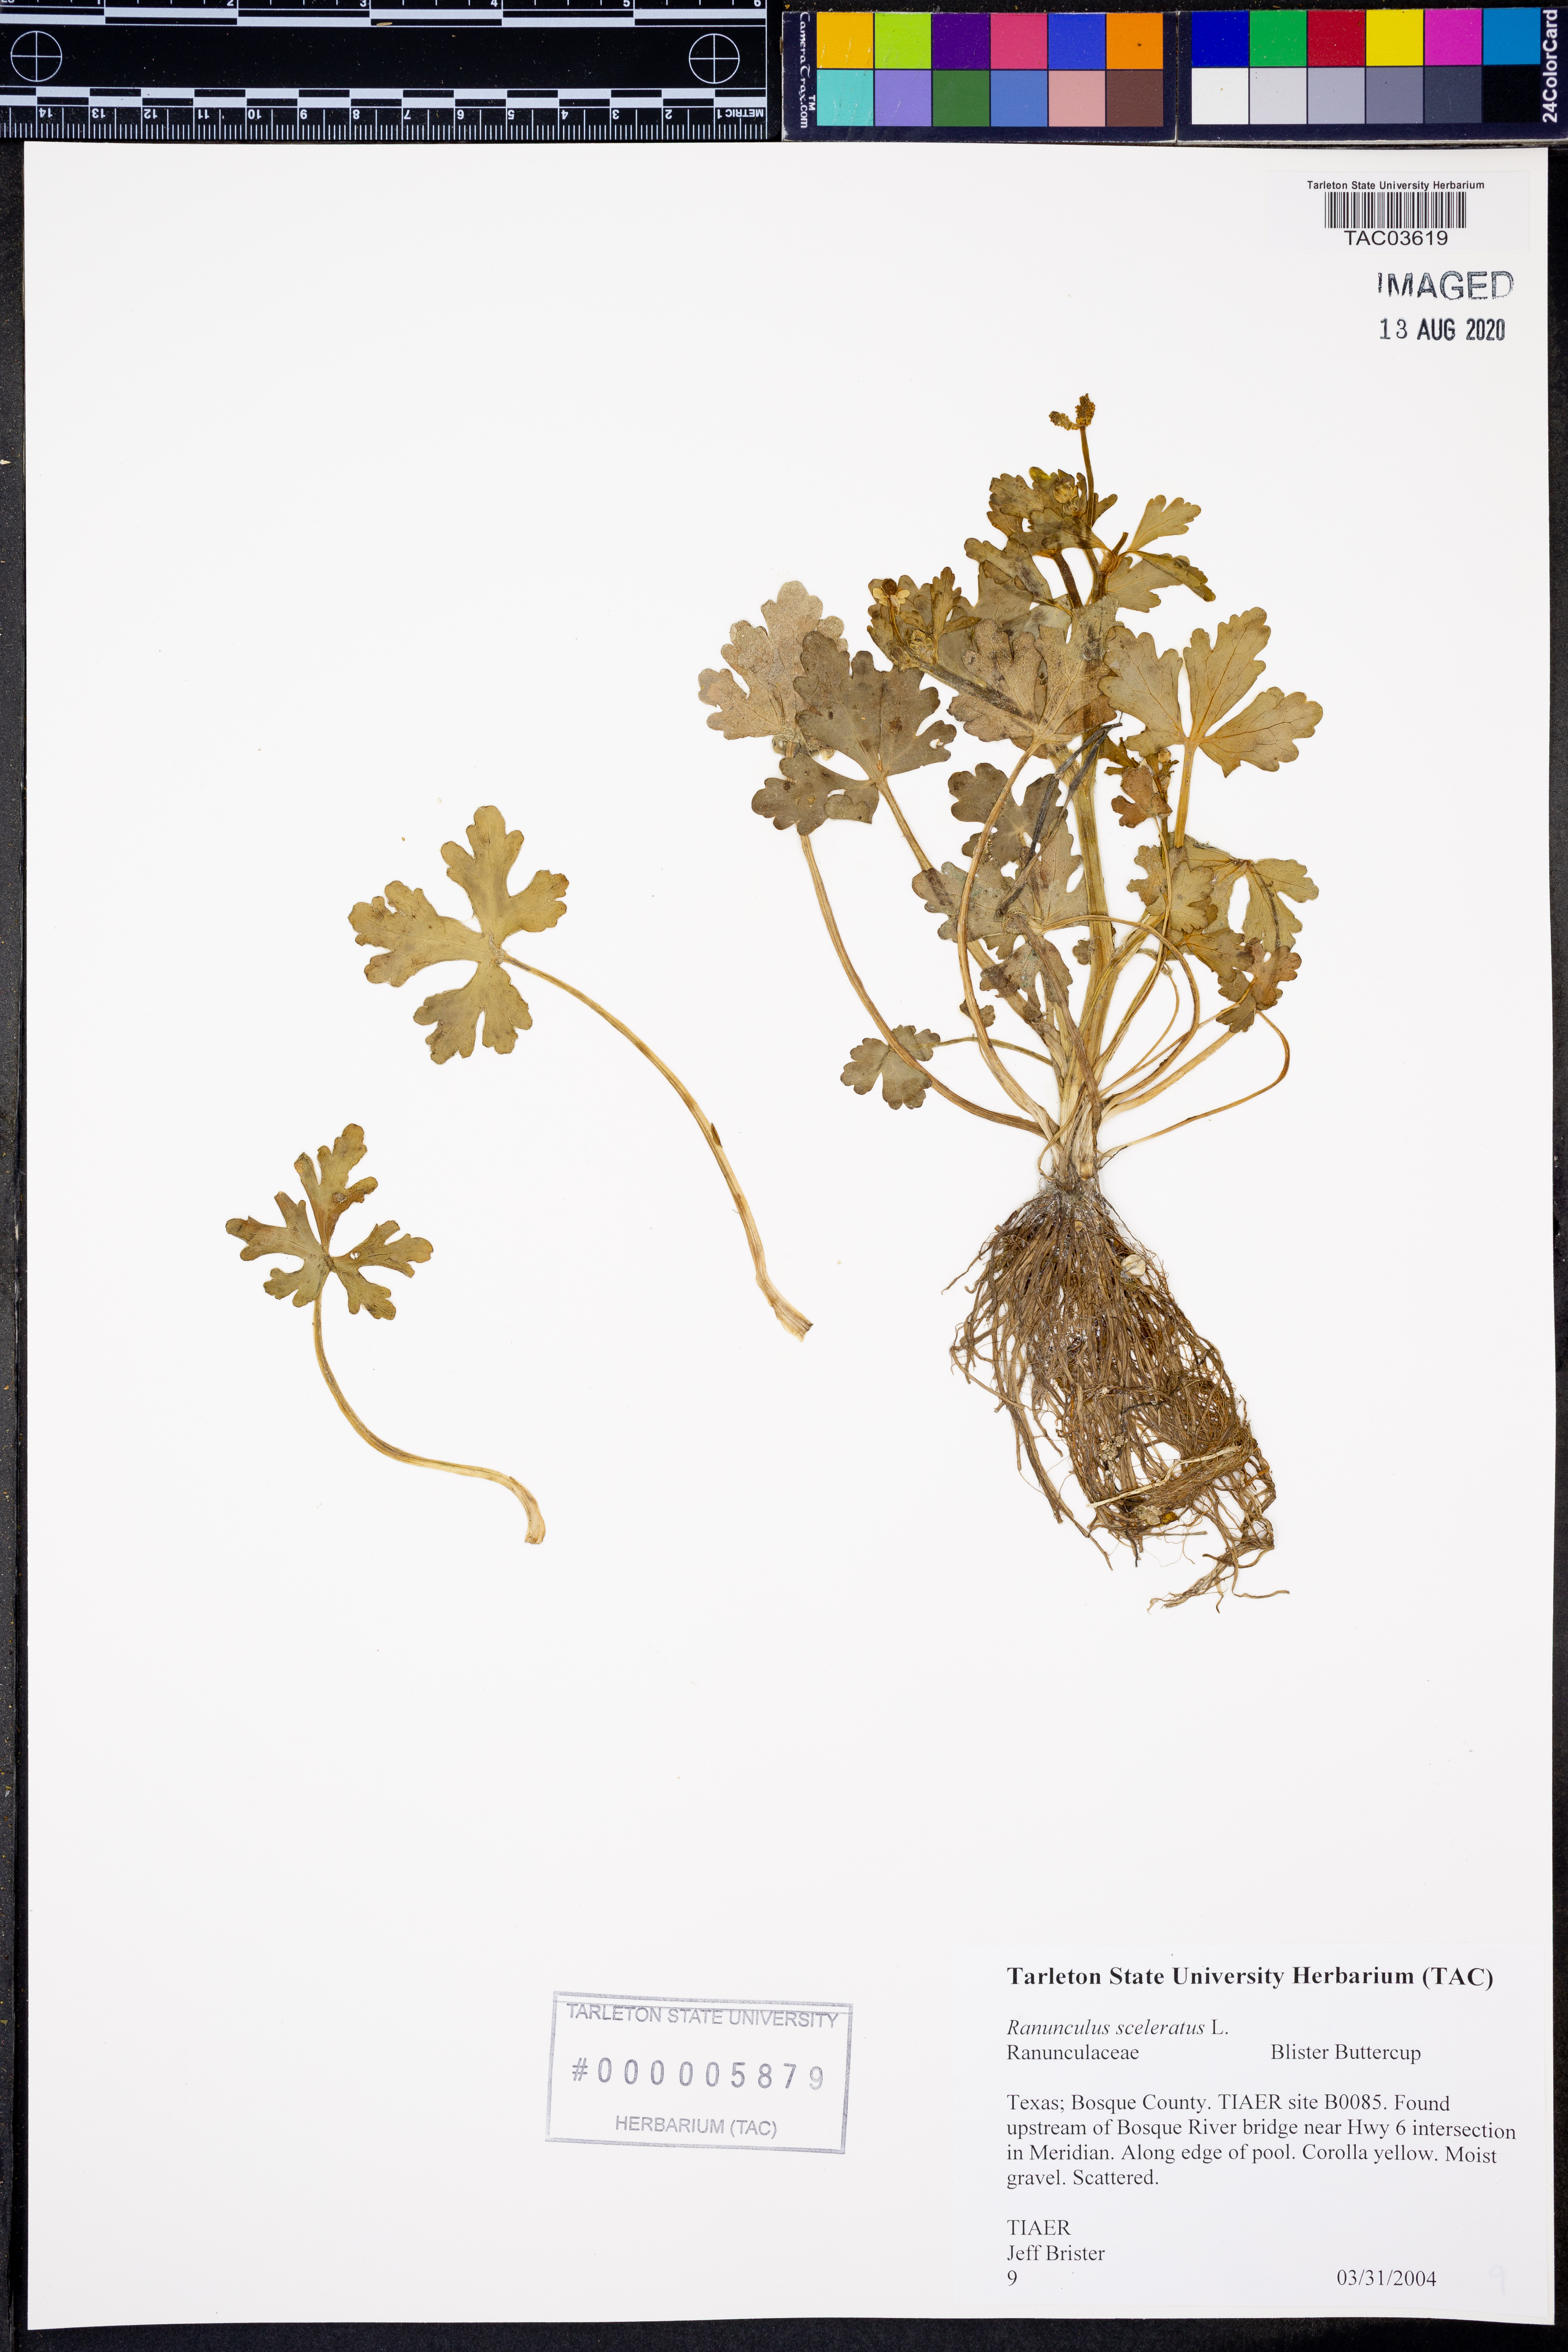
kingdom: Plantae
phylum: Tracheophyta
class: Magnoliopsida
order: Ranunculales
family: Ranunculaceae
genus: Ranunculus
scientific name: Ranunculus sceleratus
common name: Celery-leaved buttercup
